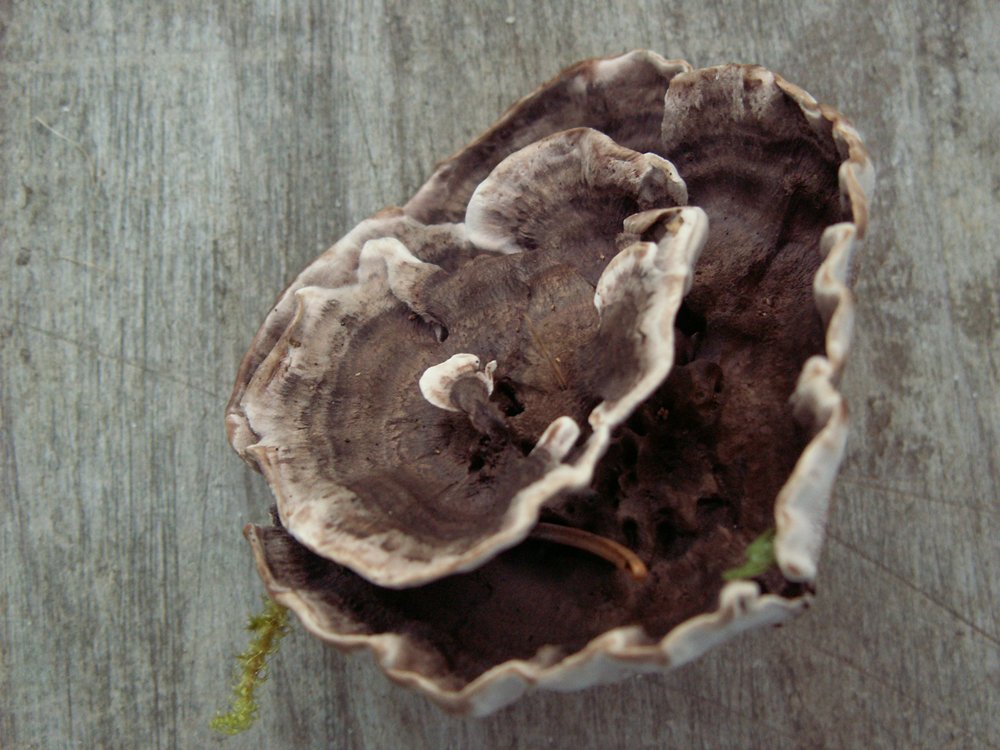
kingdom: Fungi
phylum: Basidiomycota
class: Agaricomycetes
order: Thelephorales
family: Thelephoraceae
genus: Phellodon
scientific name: Phellodon tomentosus
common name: vellugtende duftpigsvamp
